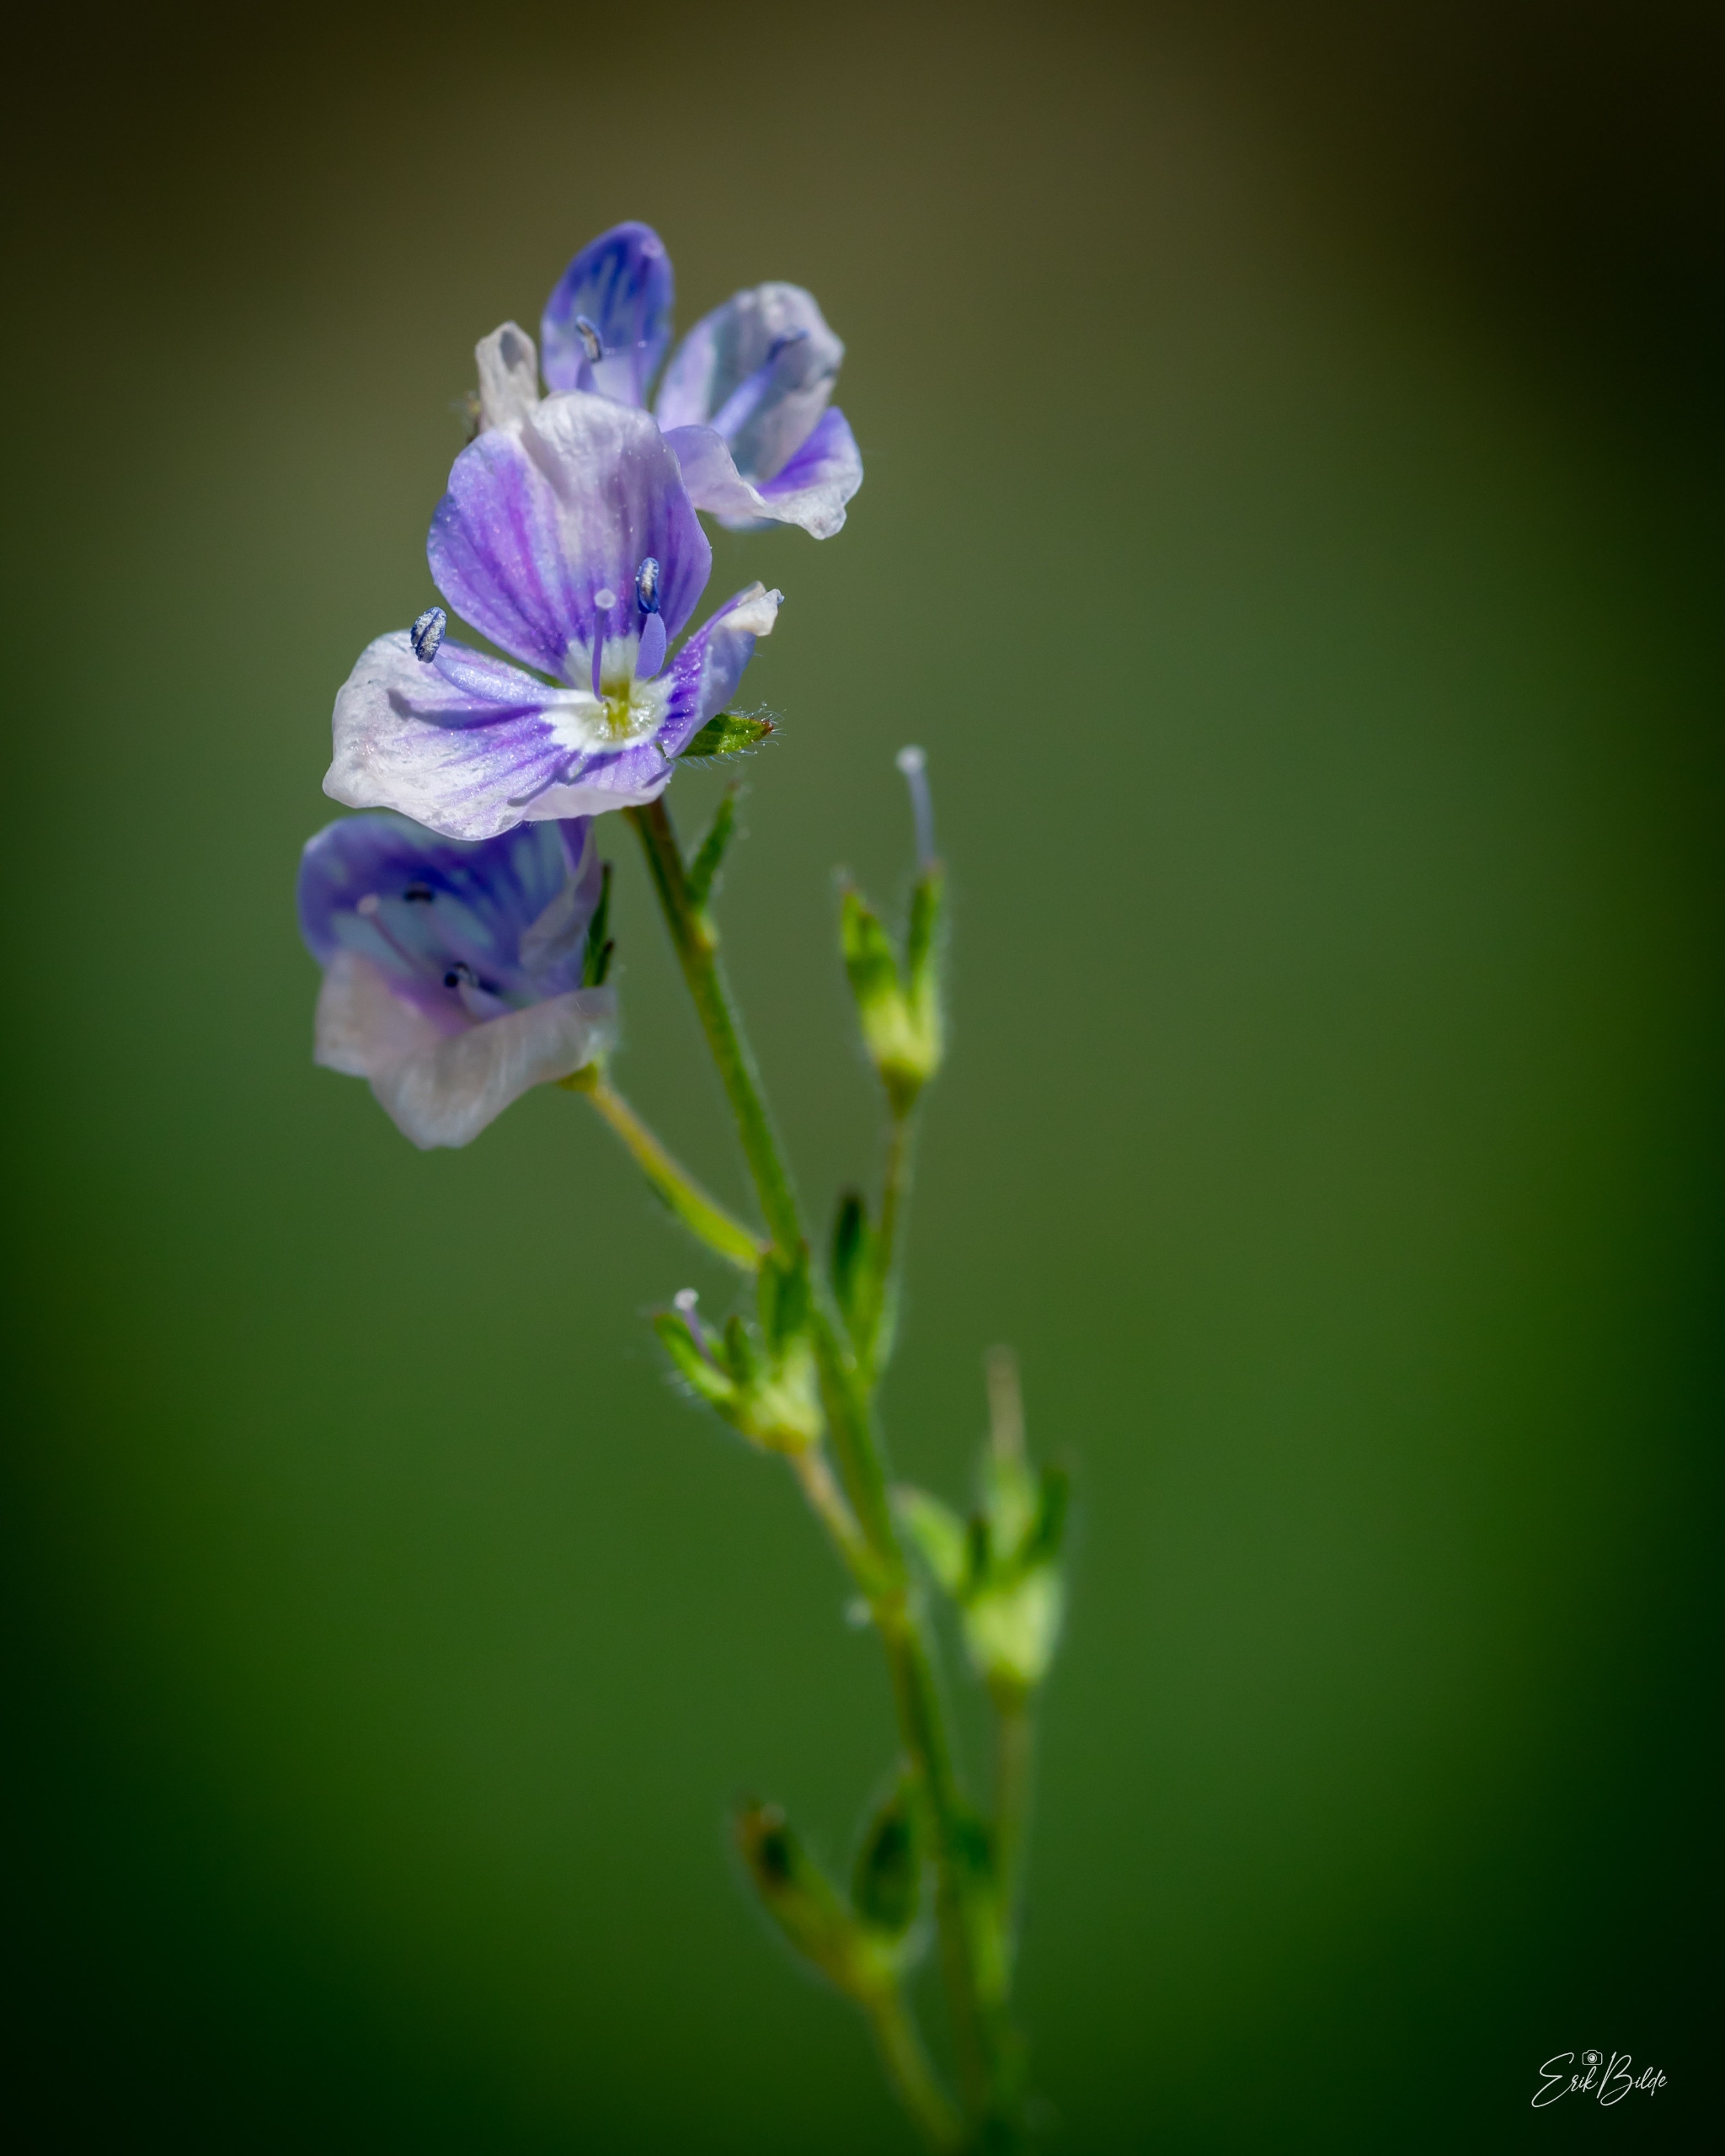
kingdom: Plantae
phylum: Tracheophyta
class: Magnoliopsida
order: Lamiales
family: Plantaginaceae
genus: Veronica
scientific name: Veronica chamaedrys
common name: Tveskægget ærenpris
